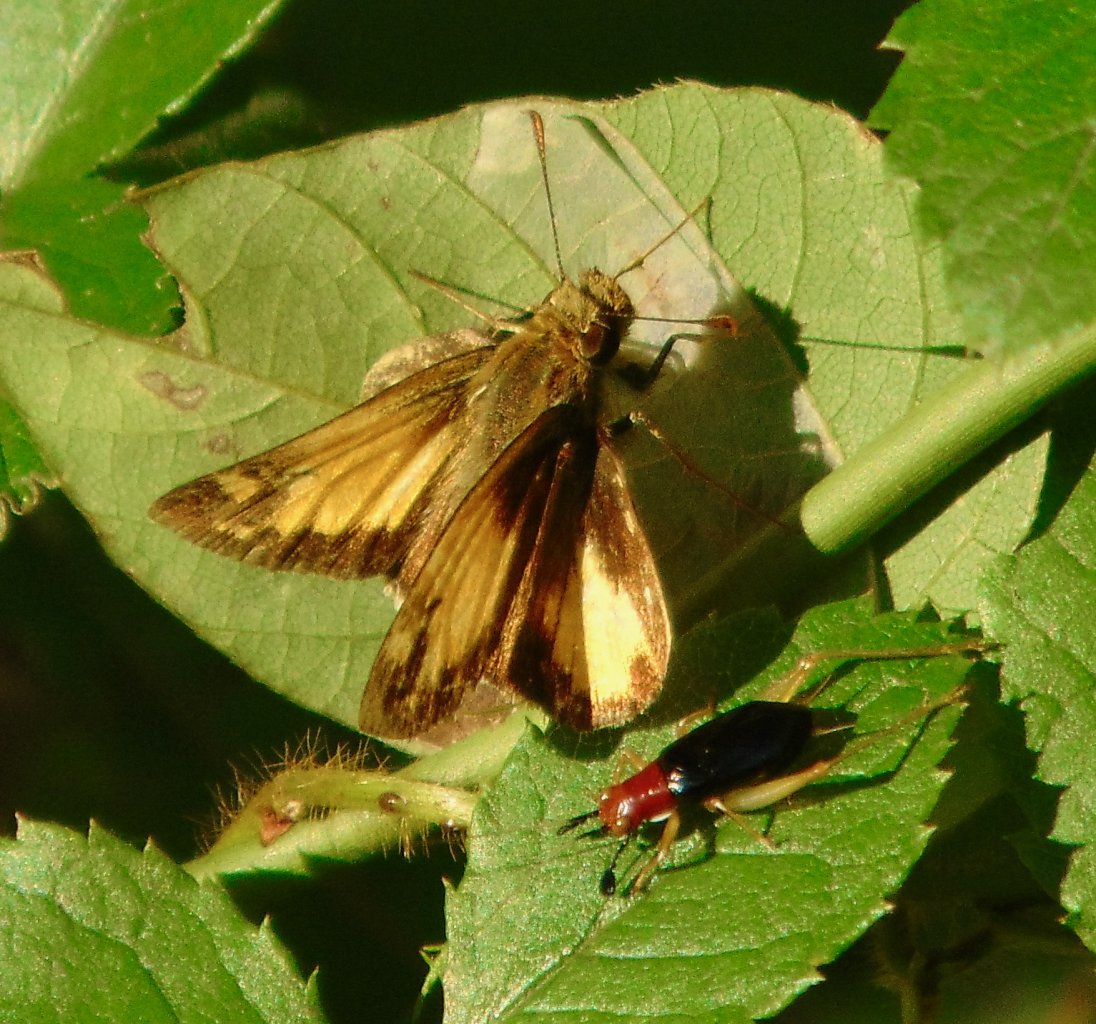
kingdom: Animalia
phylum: Arthropoda
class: Insecta
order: Lepidoptera
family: Hesperiidae
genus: Lon
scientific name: Lon zabulon
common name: Zabulon Skipper
